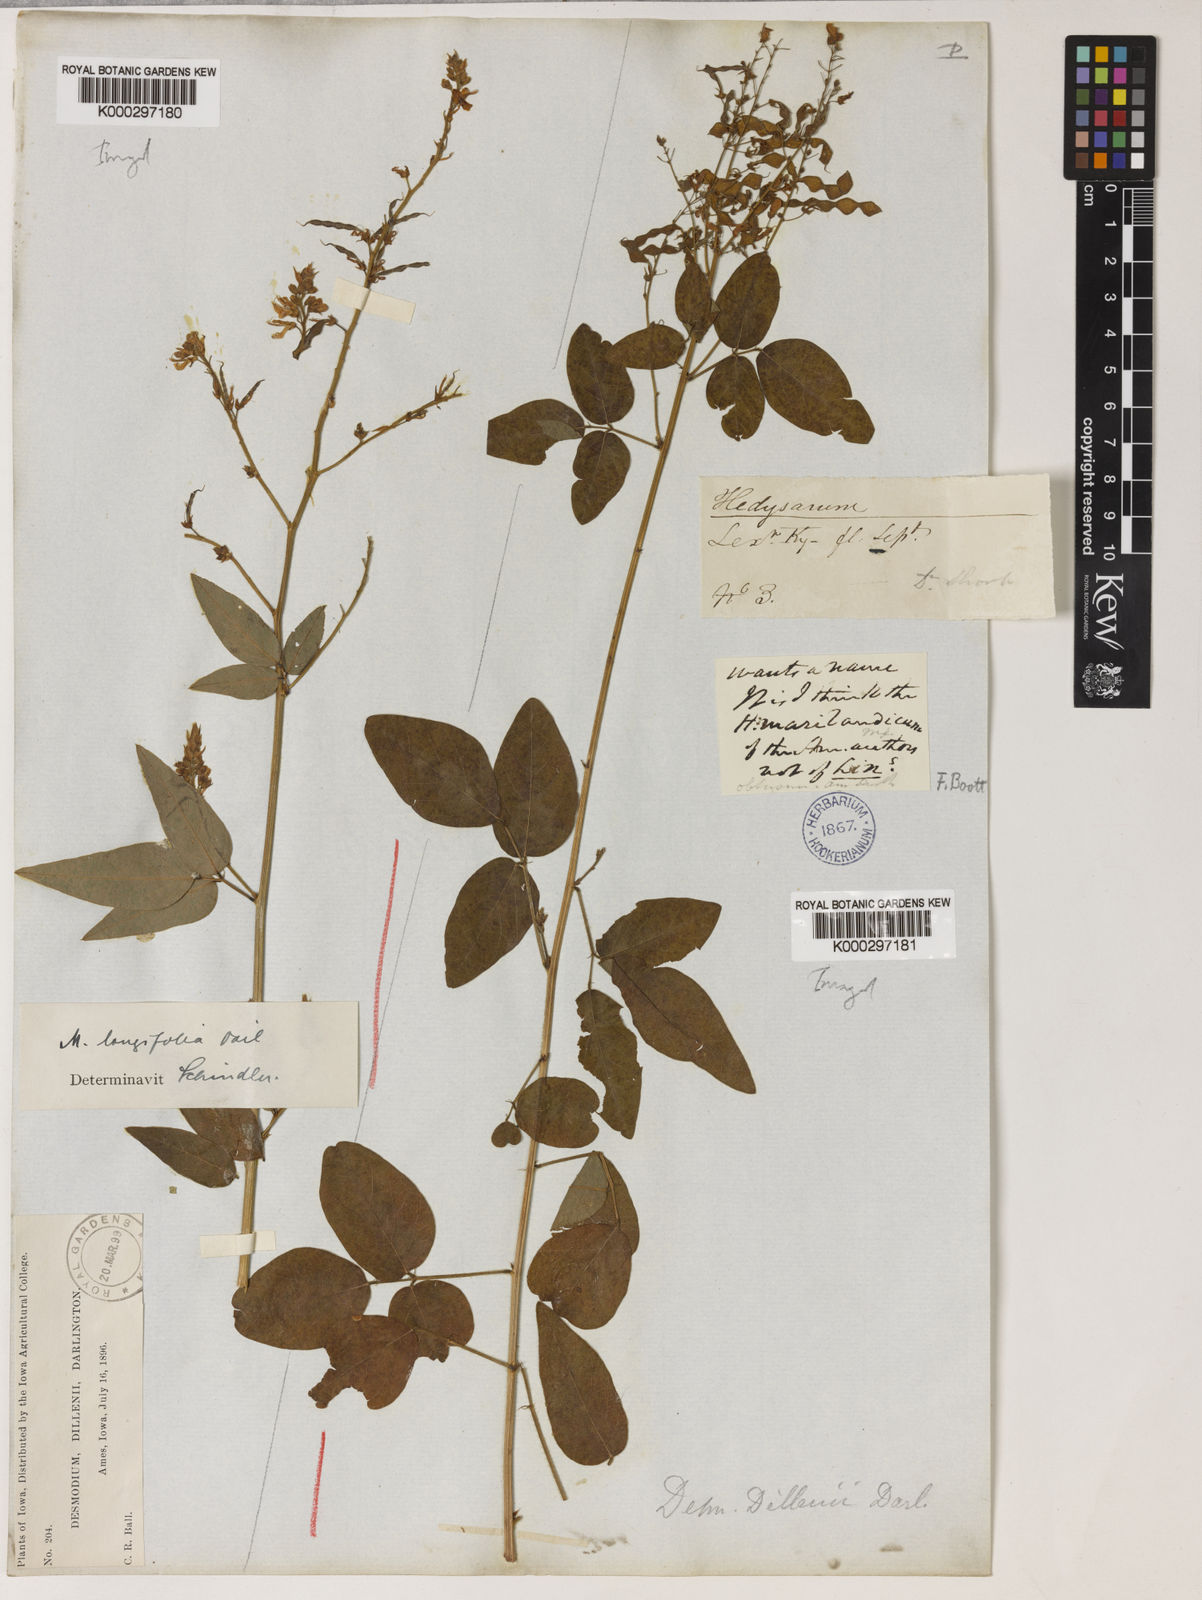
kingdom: Plantae
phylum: Tracheophyta
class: Magnoliopsida
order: Fabales
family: Fabaceae
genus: Desmodium
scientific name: Desmodium perplexum
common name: Perplexed tick trefoil
